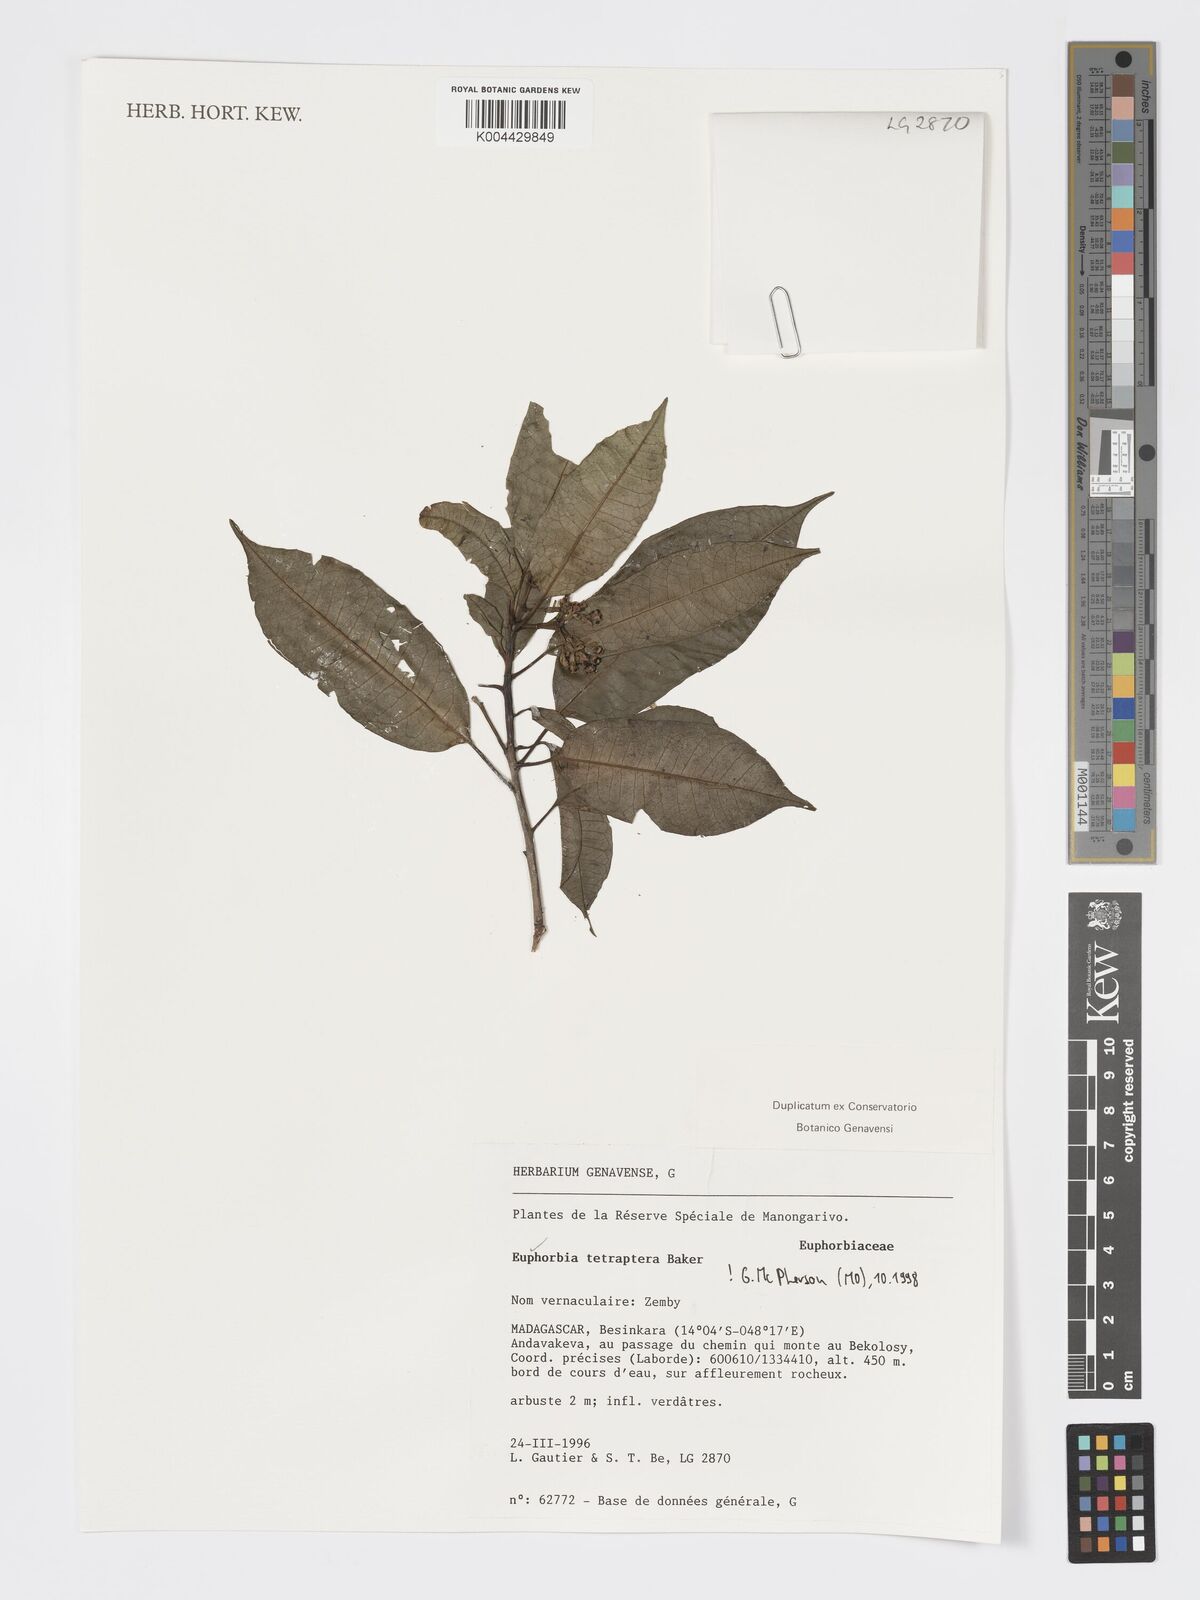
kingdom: Plantae
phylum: Tracheophyta
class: Magnoliopsida
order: Malpighiales
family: Euphorbiaceae
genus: Euphorbia
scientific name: Euphorbia tetraptera
